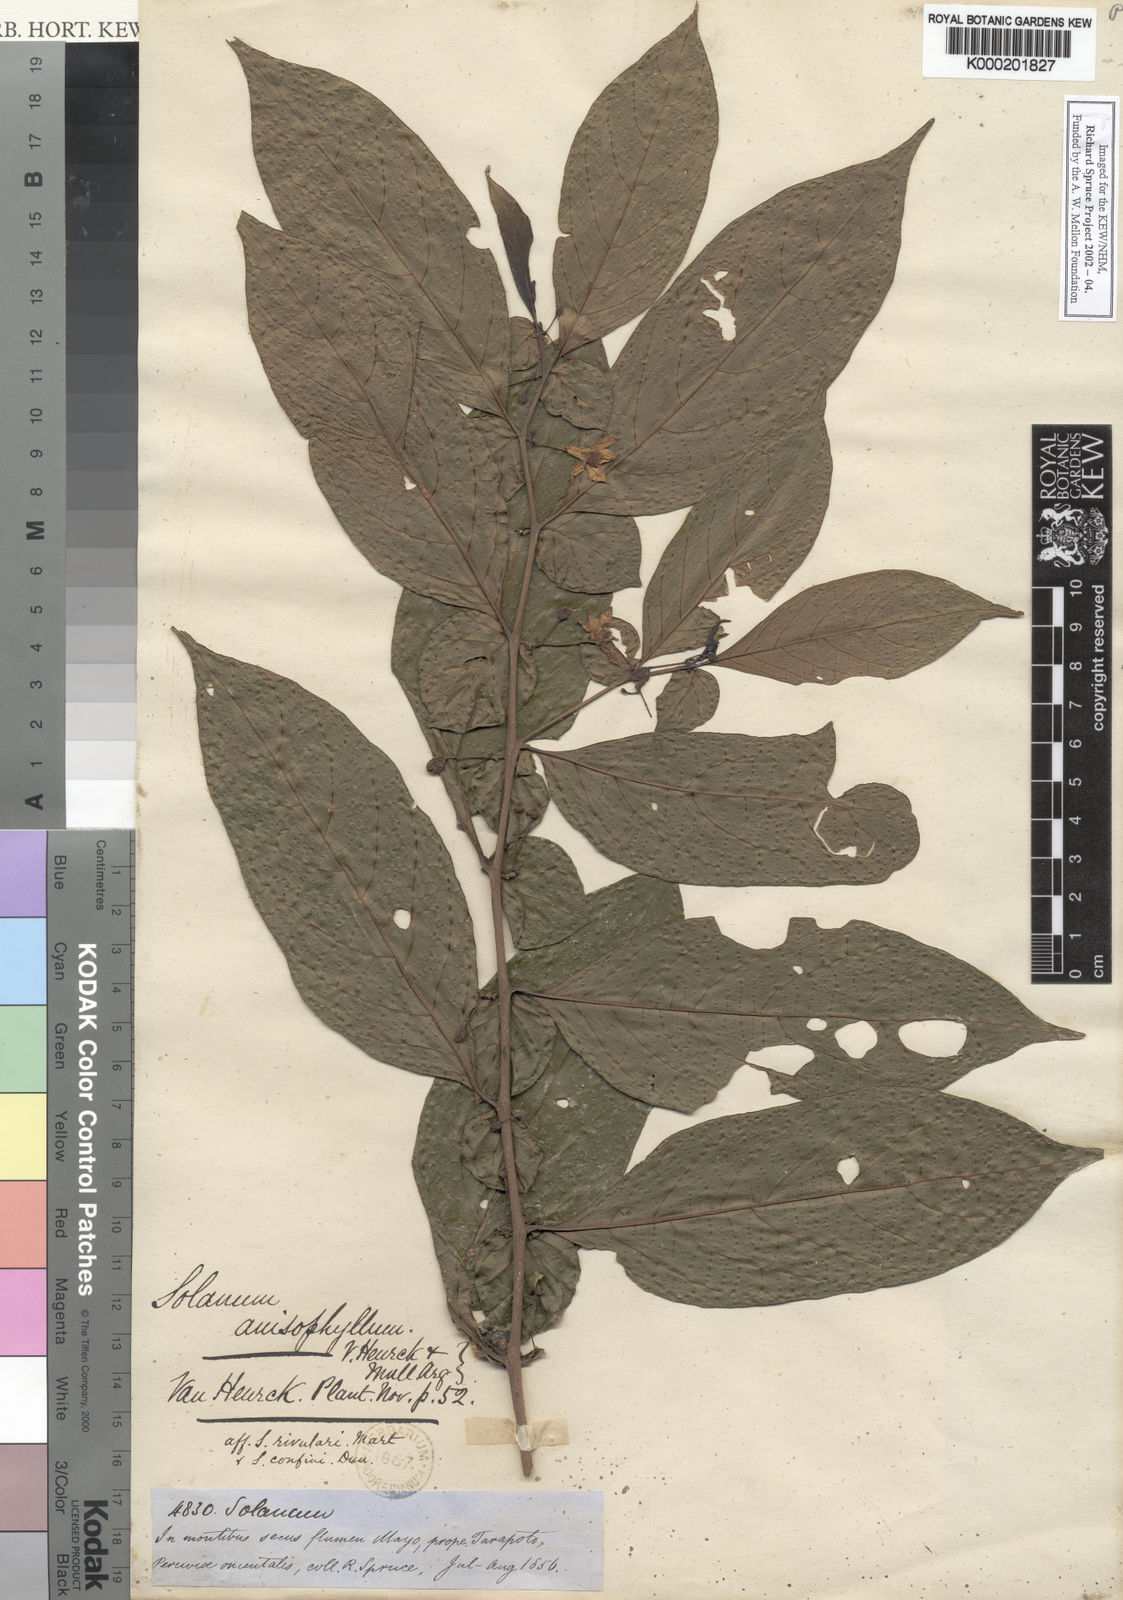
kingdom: Plantae
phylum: Tracheophyta
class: Magnoliopsida
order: Solanales
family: Solanaceae
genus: Solanum
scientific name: Solanum
